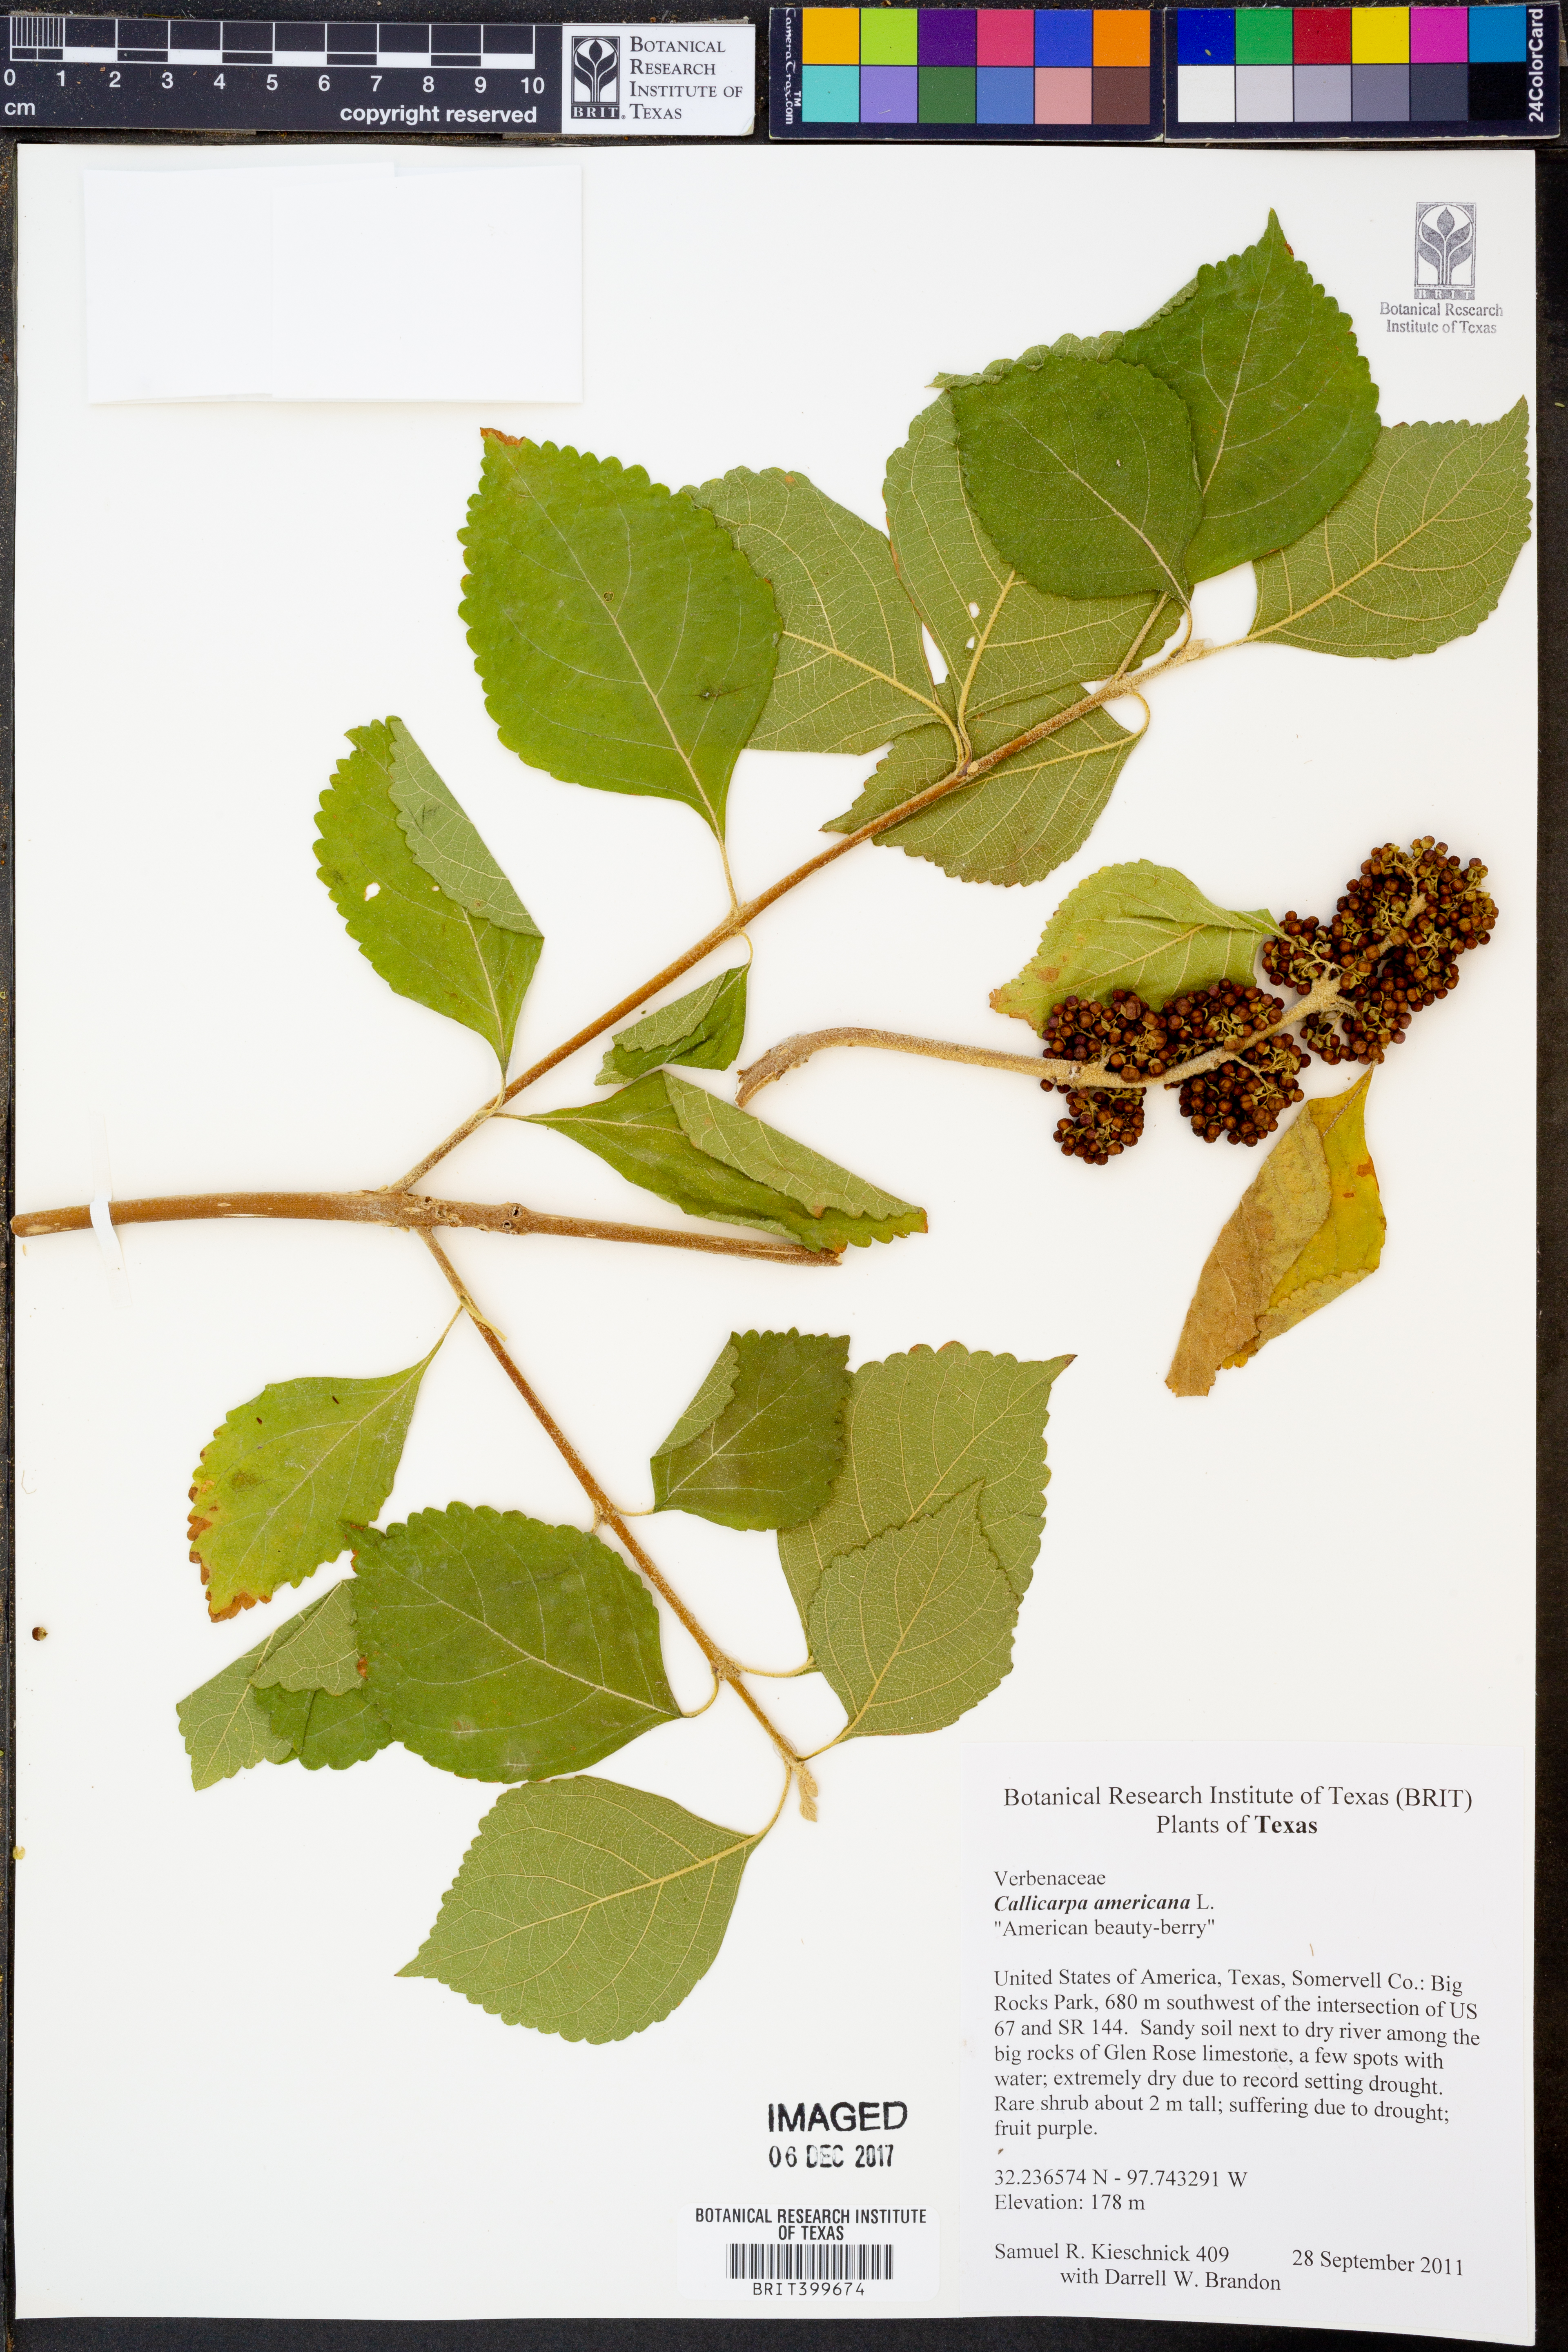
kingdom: Plantae
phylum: Tracheophyta
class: Magnoliopsida
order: Lamiales
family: Lamiaceae
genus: Callicarpa
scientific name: Callicarpa americana
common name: American beautyberry
